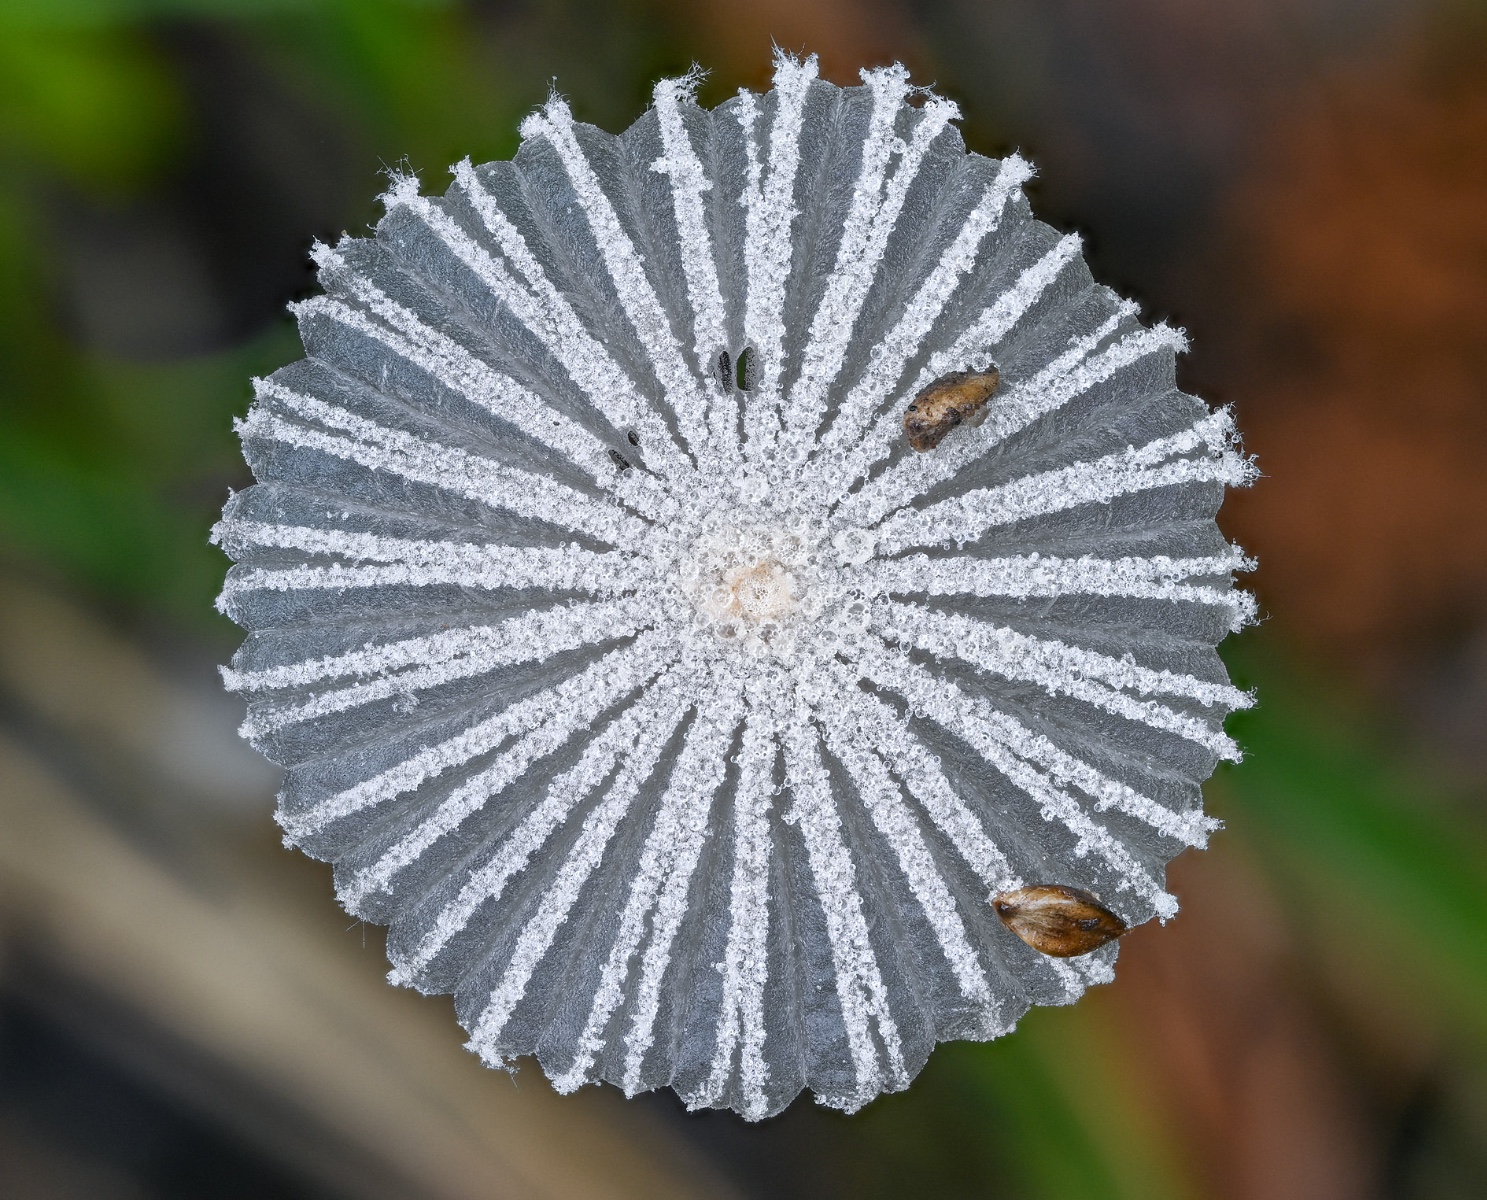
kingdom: Fungi
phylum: Basidiomycota
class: Agaricomycetes
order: Agaricales
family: Psathyrellaceae
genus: Coprinopsis
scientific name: Coprinopsis cortinata
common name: slør-blækhat
